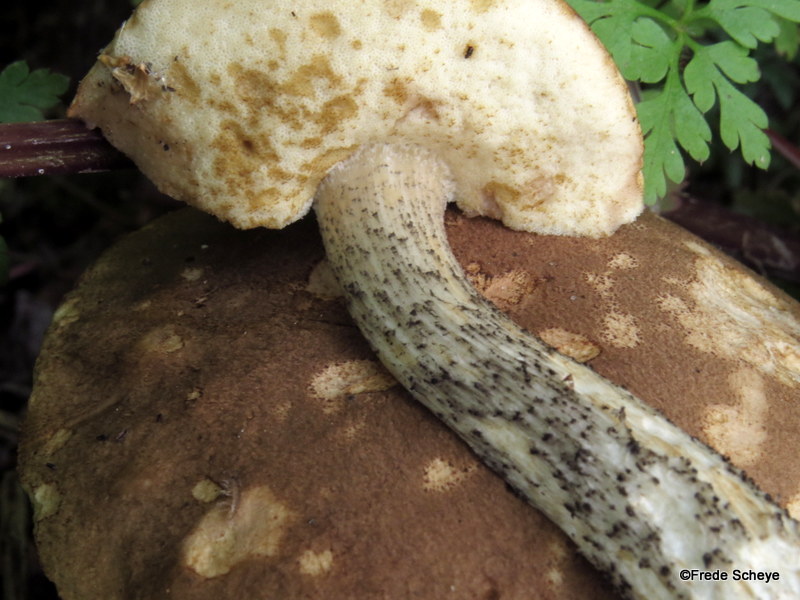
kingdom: Fungi
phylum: Basidiomycota
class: Agaricomycetes
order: Boletales
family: Boletaceae
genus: Leccinum
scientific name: Leccinum scabrum
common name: brun skælrørhat
